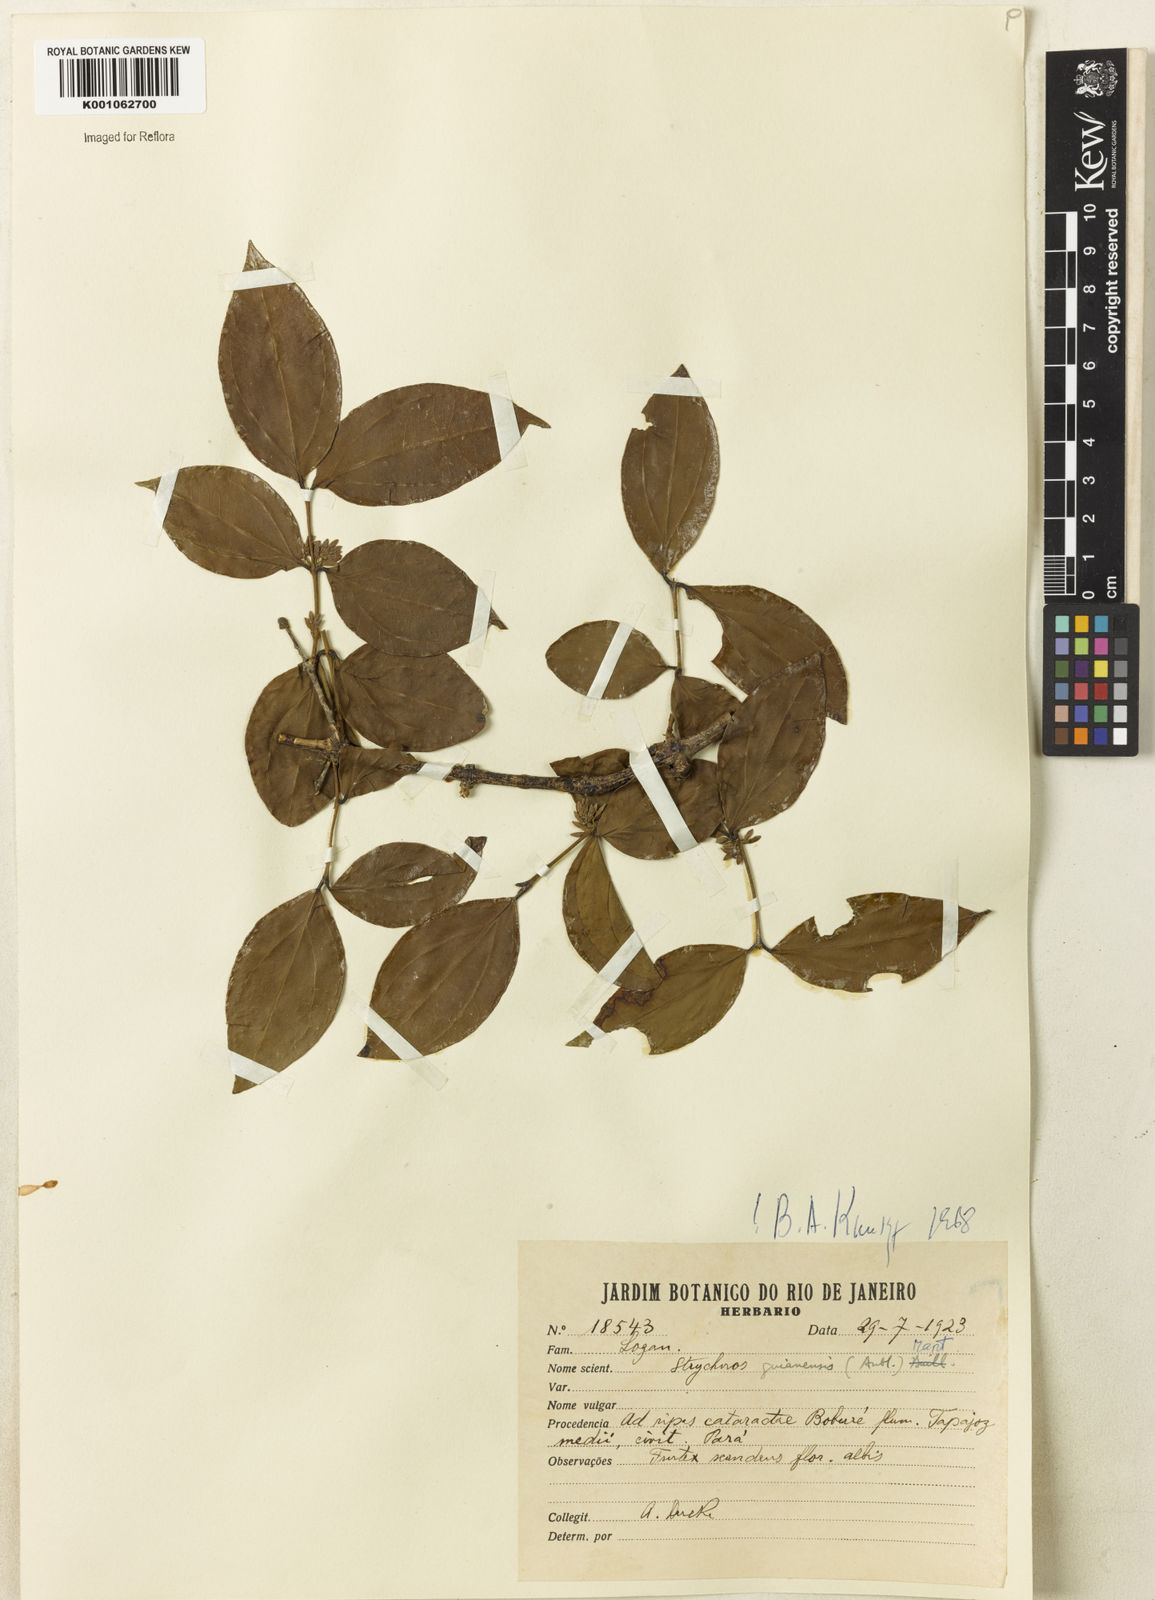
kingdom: Plantae
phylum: Tracheophyta
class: Magnoliopsida
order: Gentianales
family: Loganiaceae
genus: Strychnos
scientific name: Strychnos guianensis
